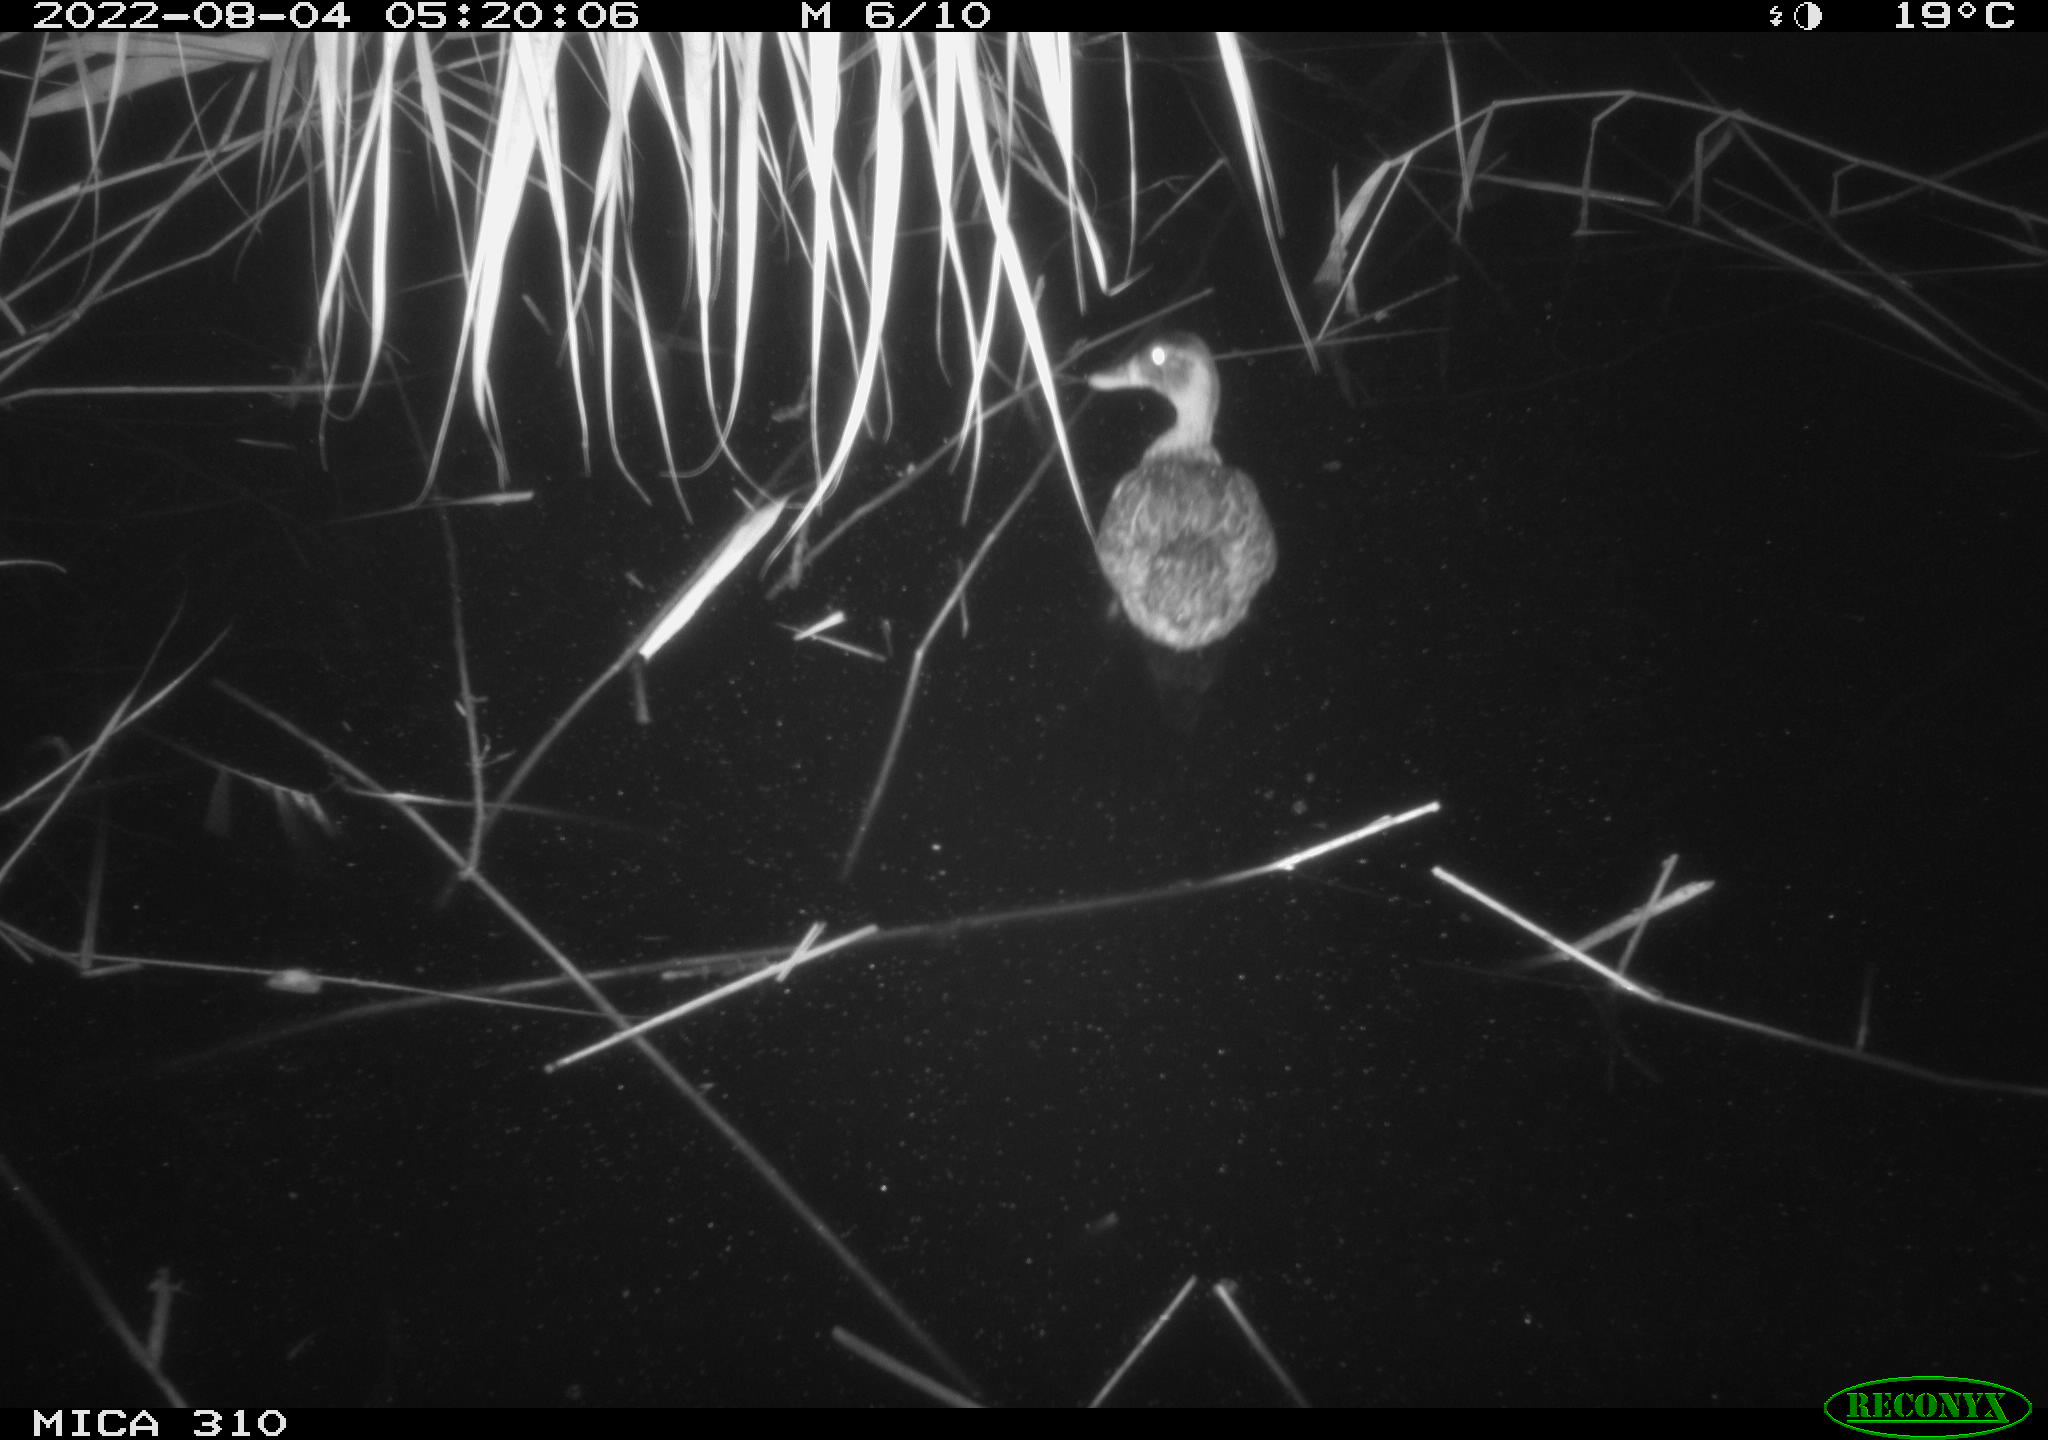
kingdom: Animalia
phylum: Chordata
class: Aves
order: Anseriformes
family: Anatidae
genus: Anas
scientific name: Anas platyrhynchos
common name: Mallard
